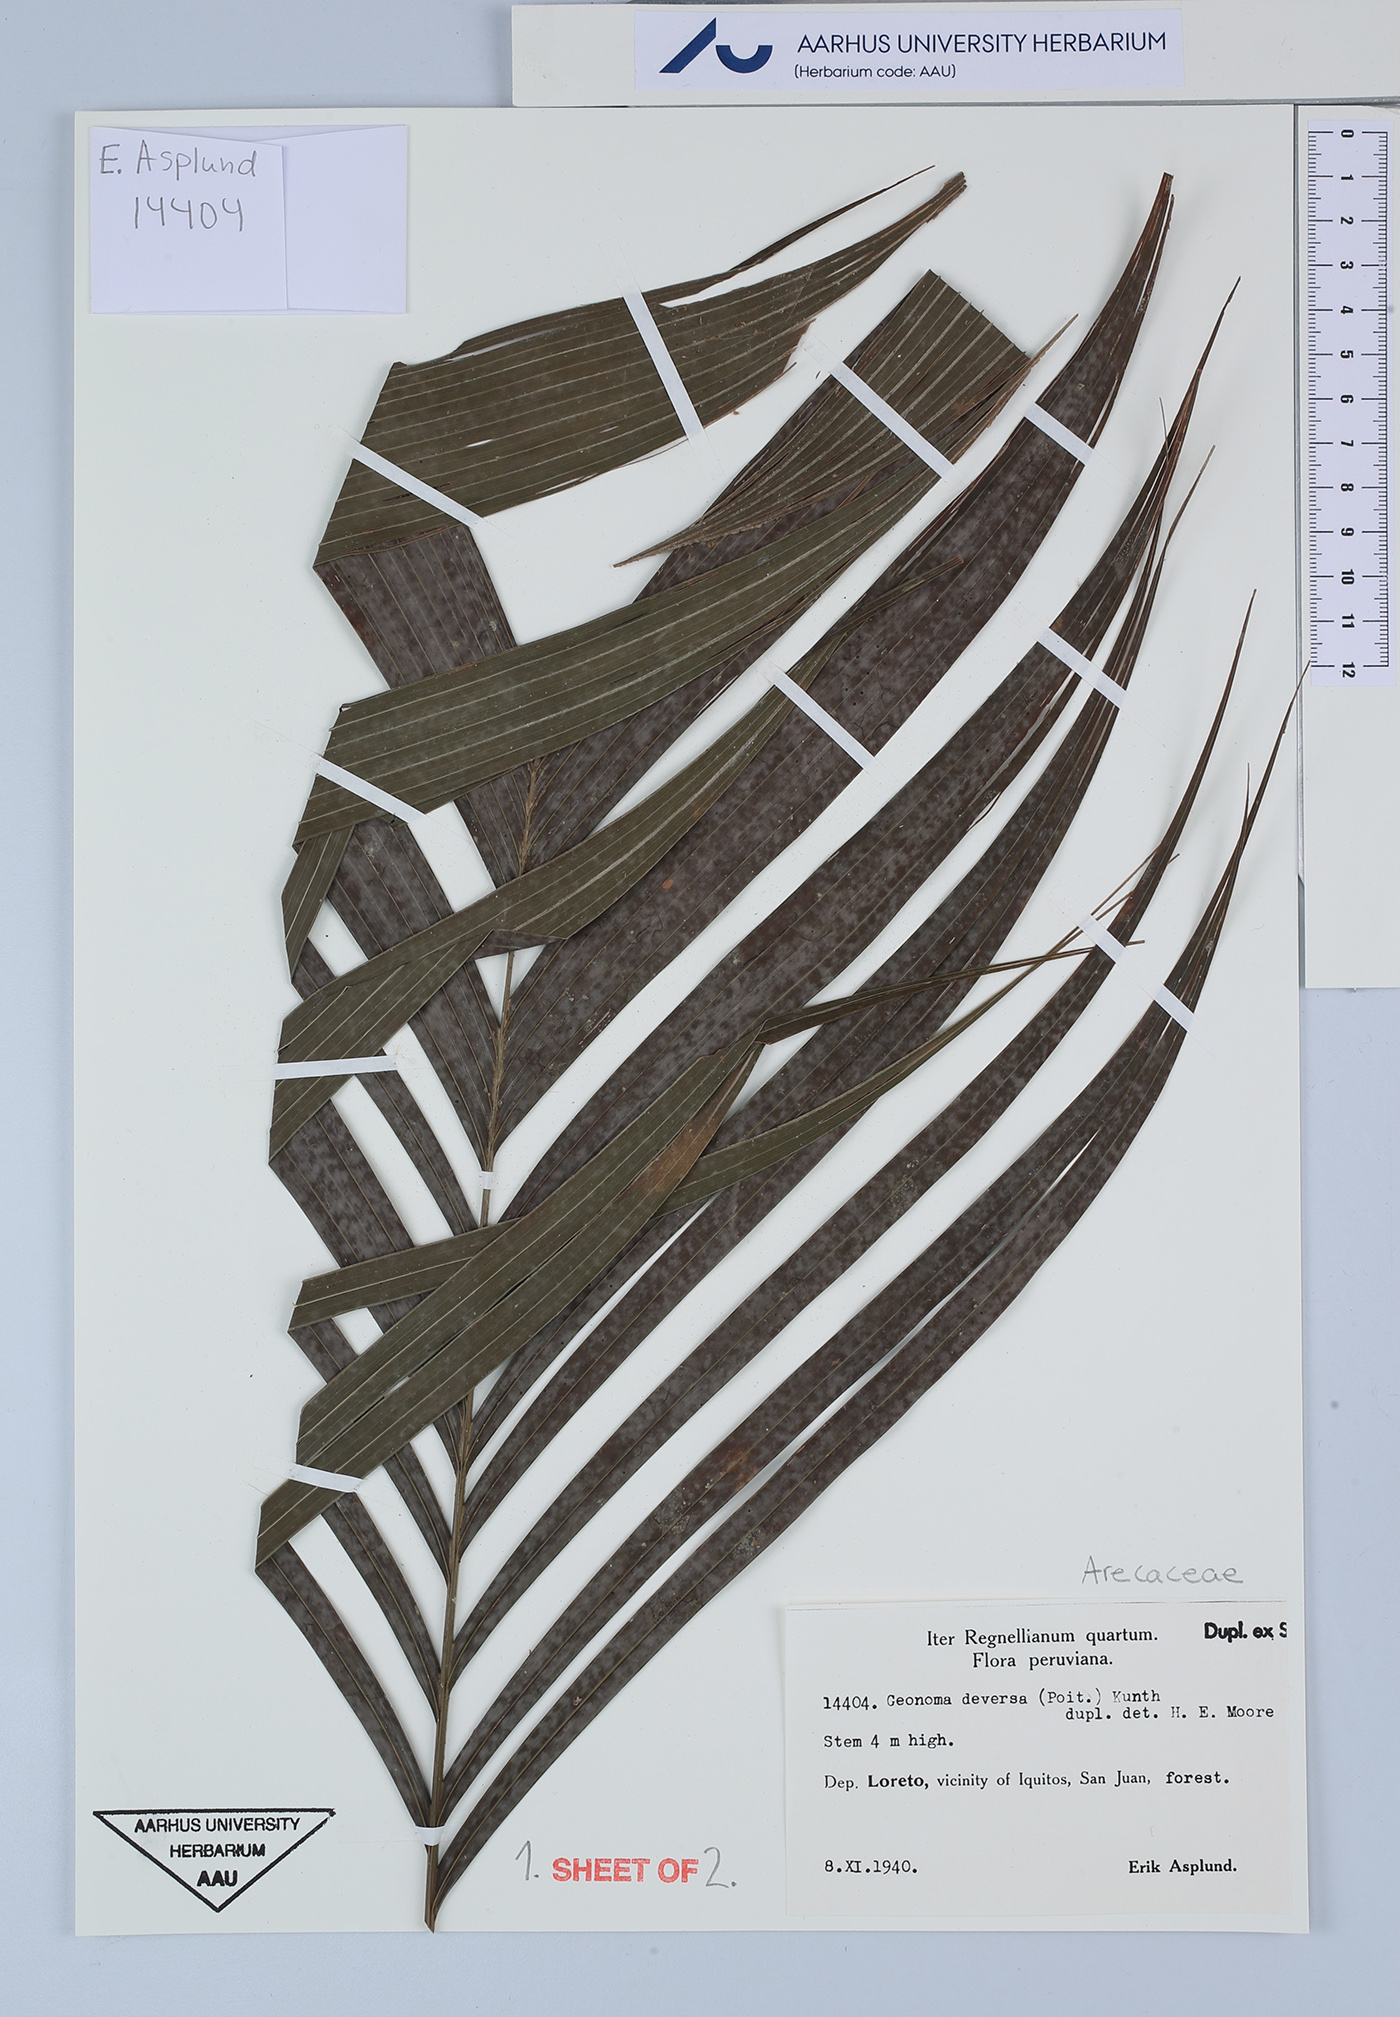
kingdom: Plantae
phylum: Tracheophyta
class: Liliopsida
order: Arecales
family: Arecaceae
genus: Geonoma
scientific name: Geonoma deversa
